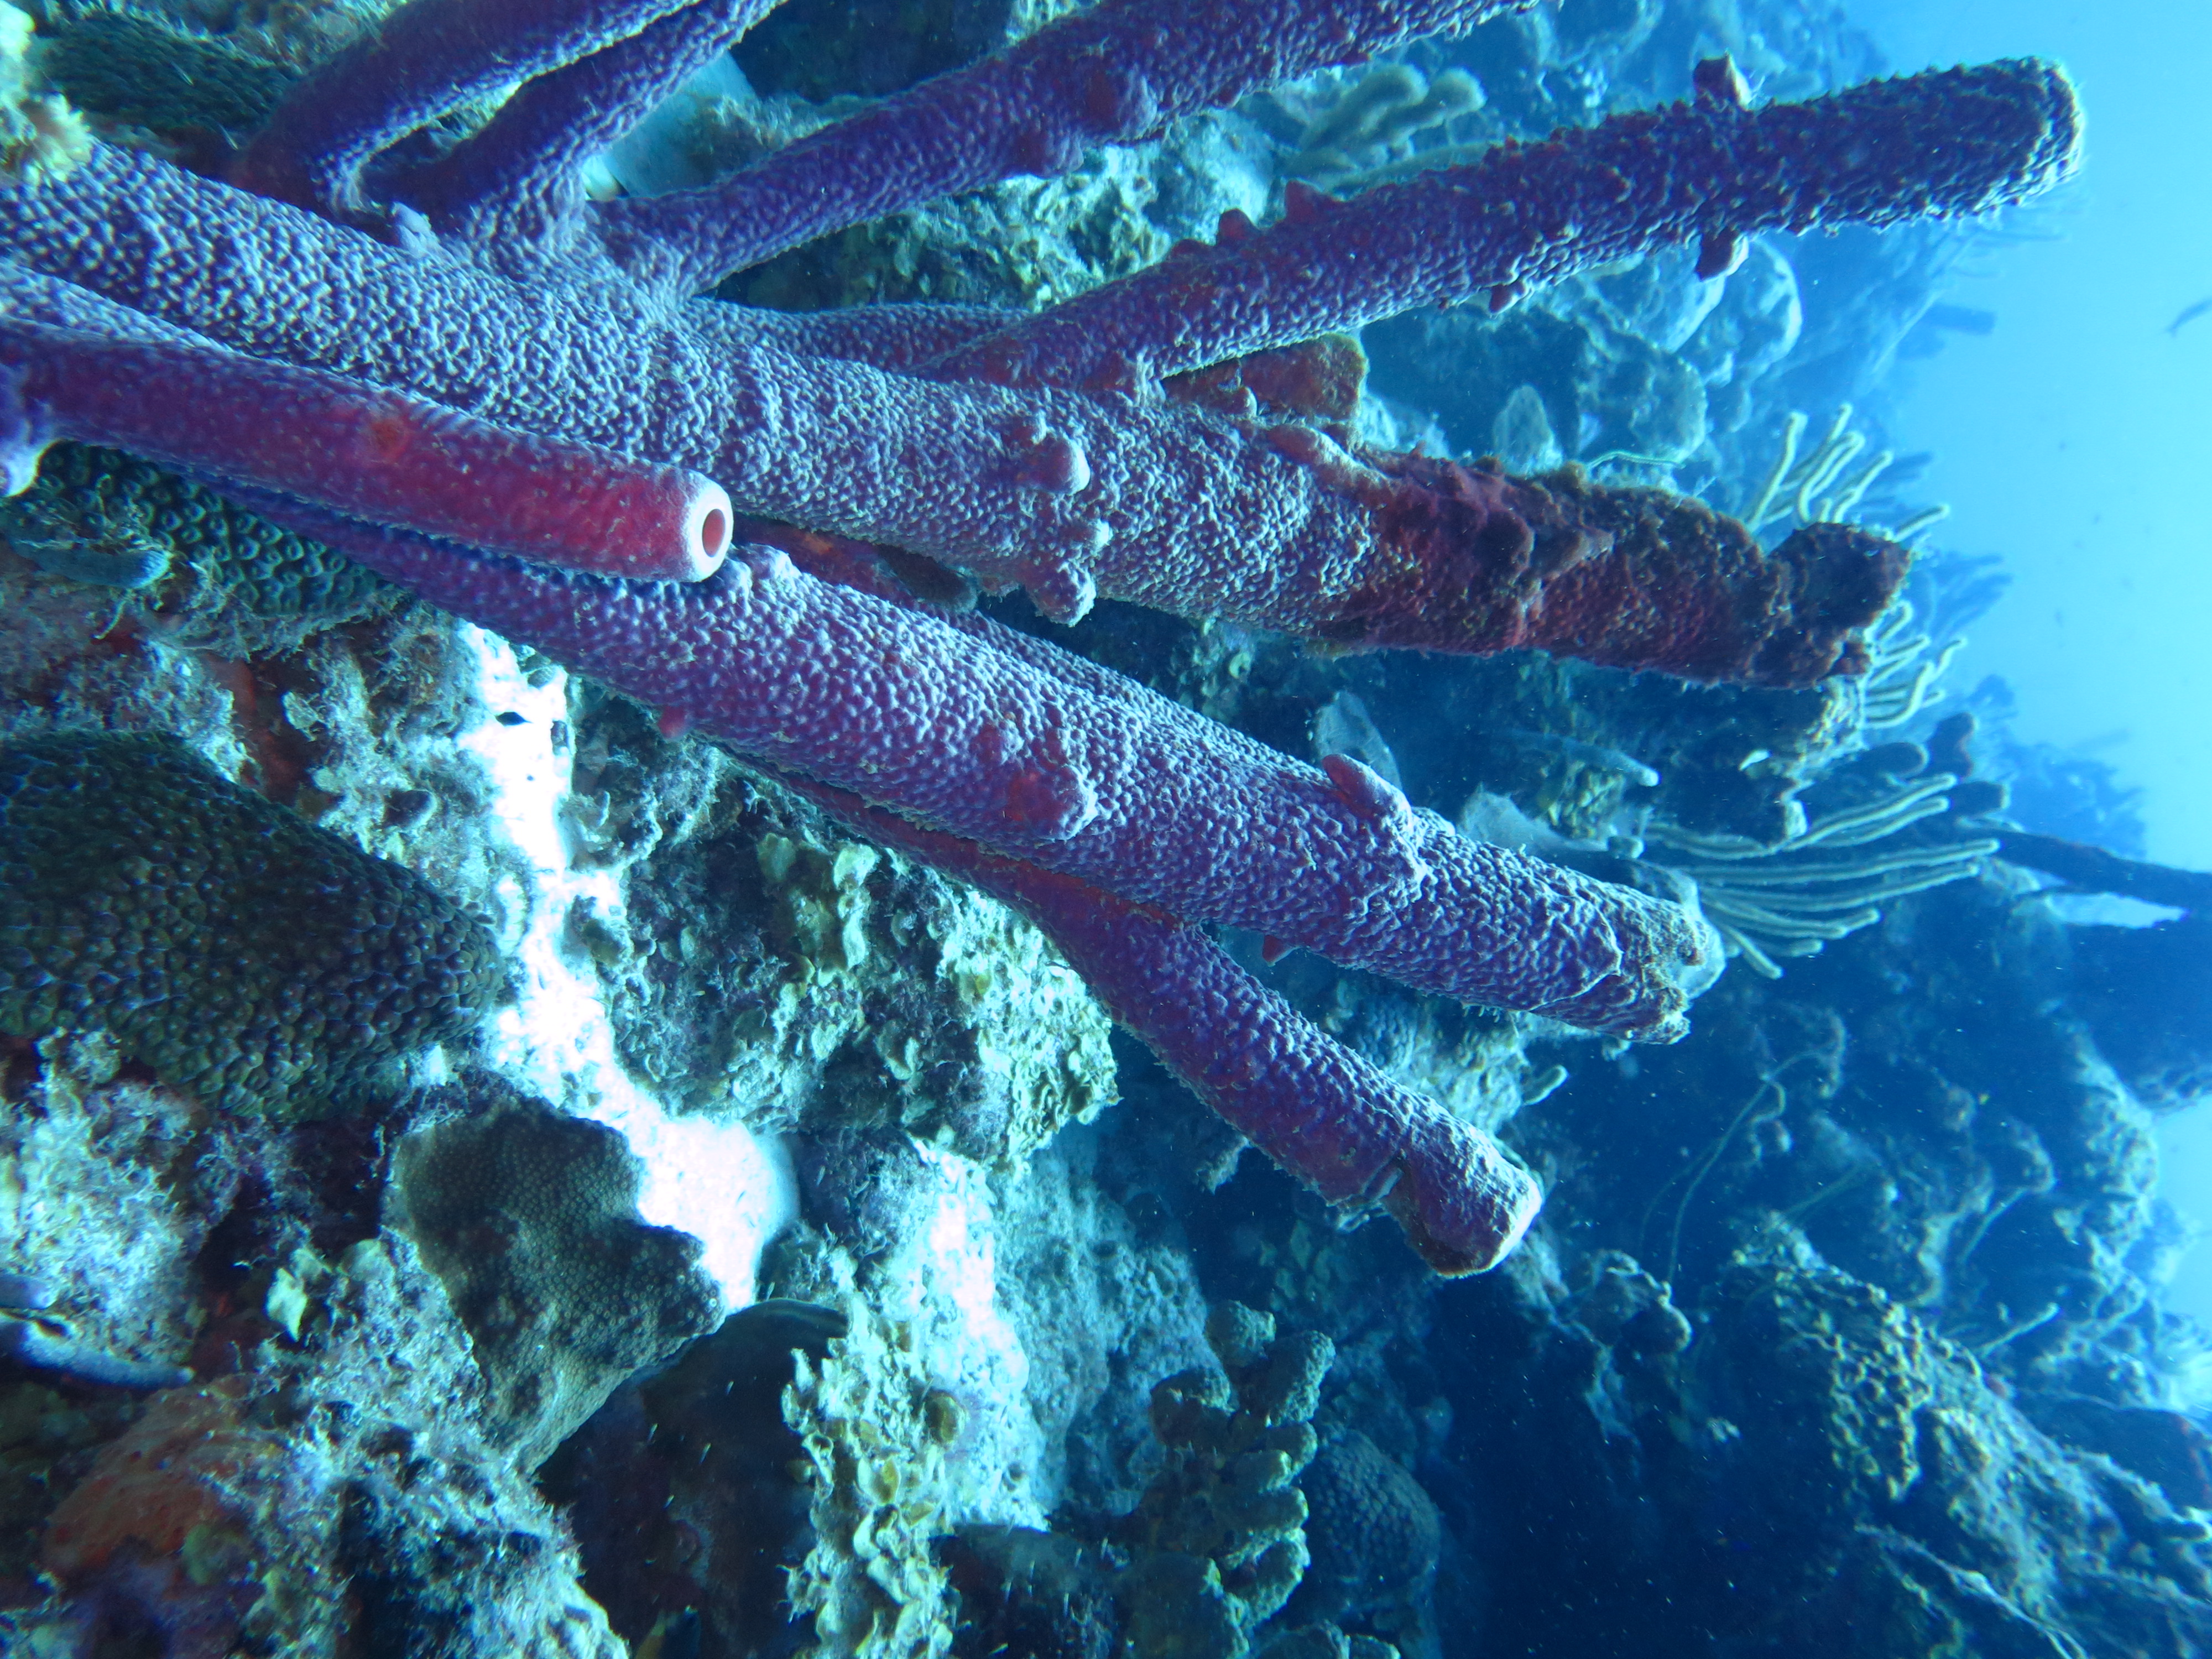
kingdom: Animalia
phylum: Porifera
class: Demospongiae
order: Verongiida
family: Aplysinidae
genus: Aplysina
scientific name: Aplysina archeri
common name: Stove-pipe sponge
